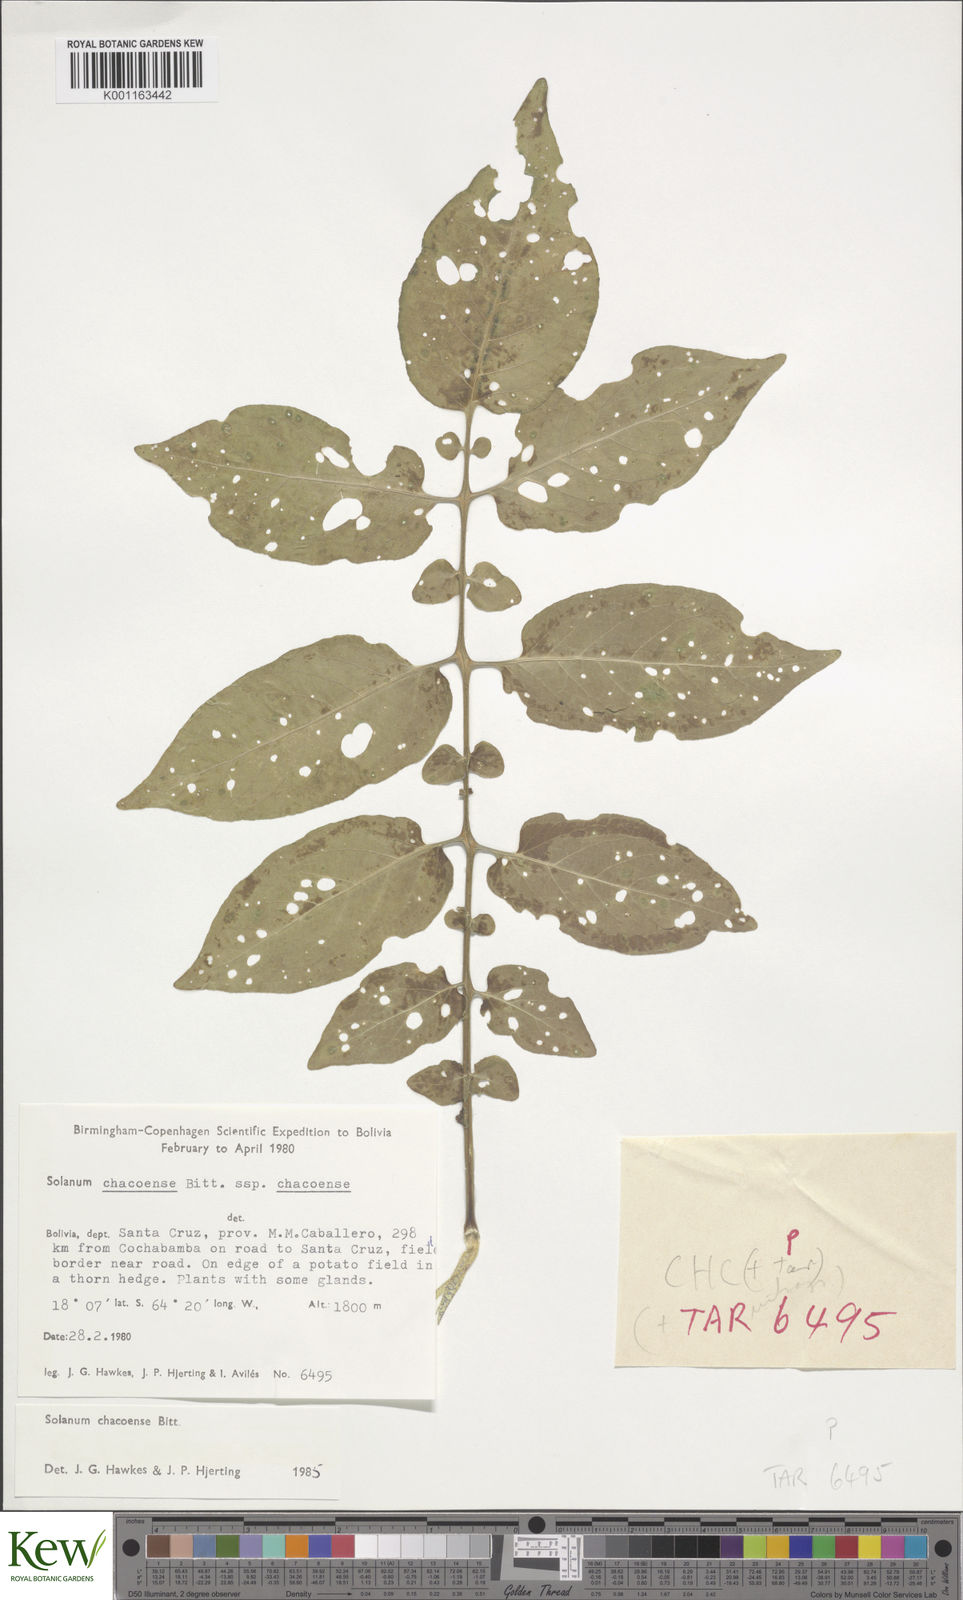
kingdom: Plantae
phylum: Tracheophyta
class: Magnoliopsida
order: Solanales
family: Solanaceae
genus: Solanum
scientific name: Solanum chacoense
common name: Chaco potato
